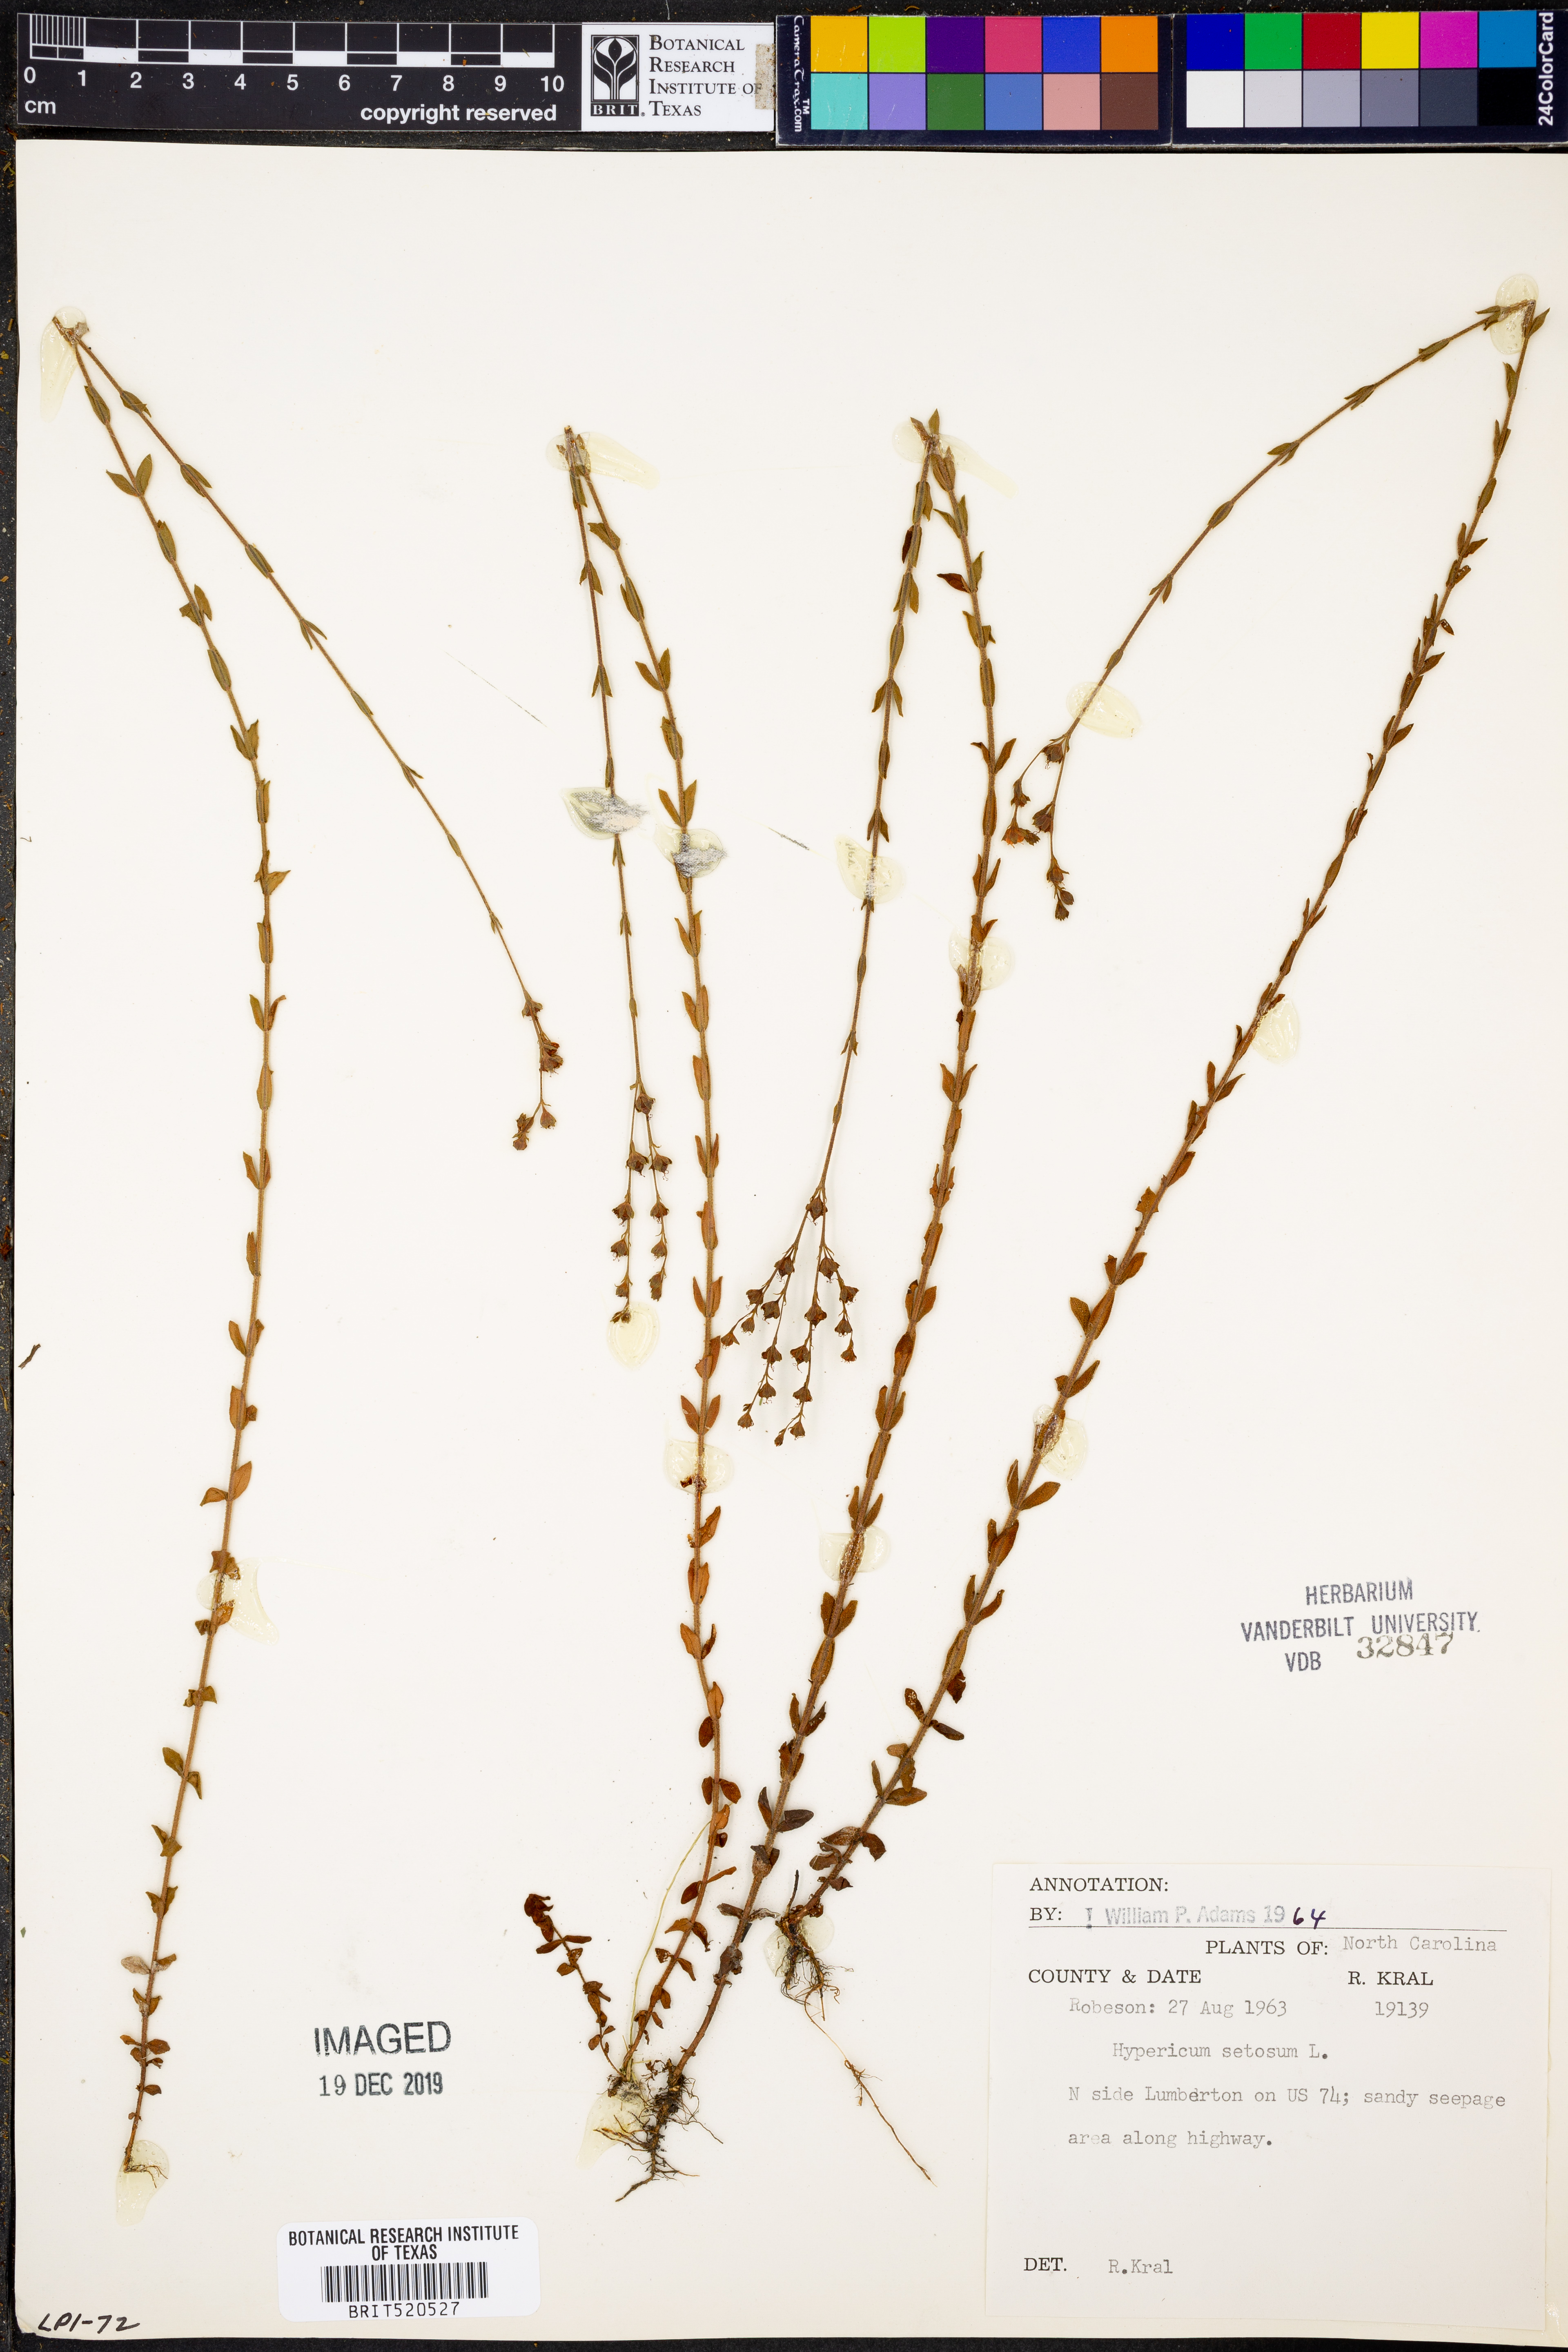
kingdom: Plantae
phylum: Tracheophyta
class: Magnoliopsida
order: Malpighiales
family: Hypericaceae
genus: Hypericum
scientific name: Hypericum setosum
